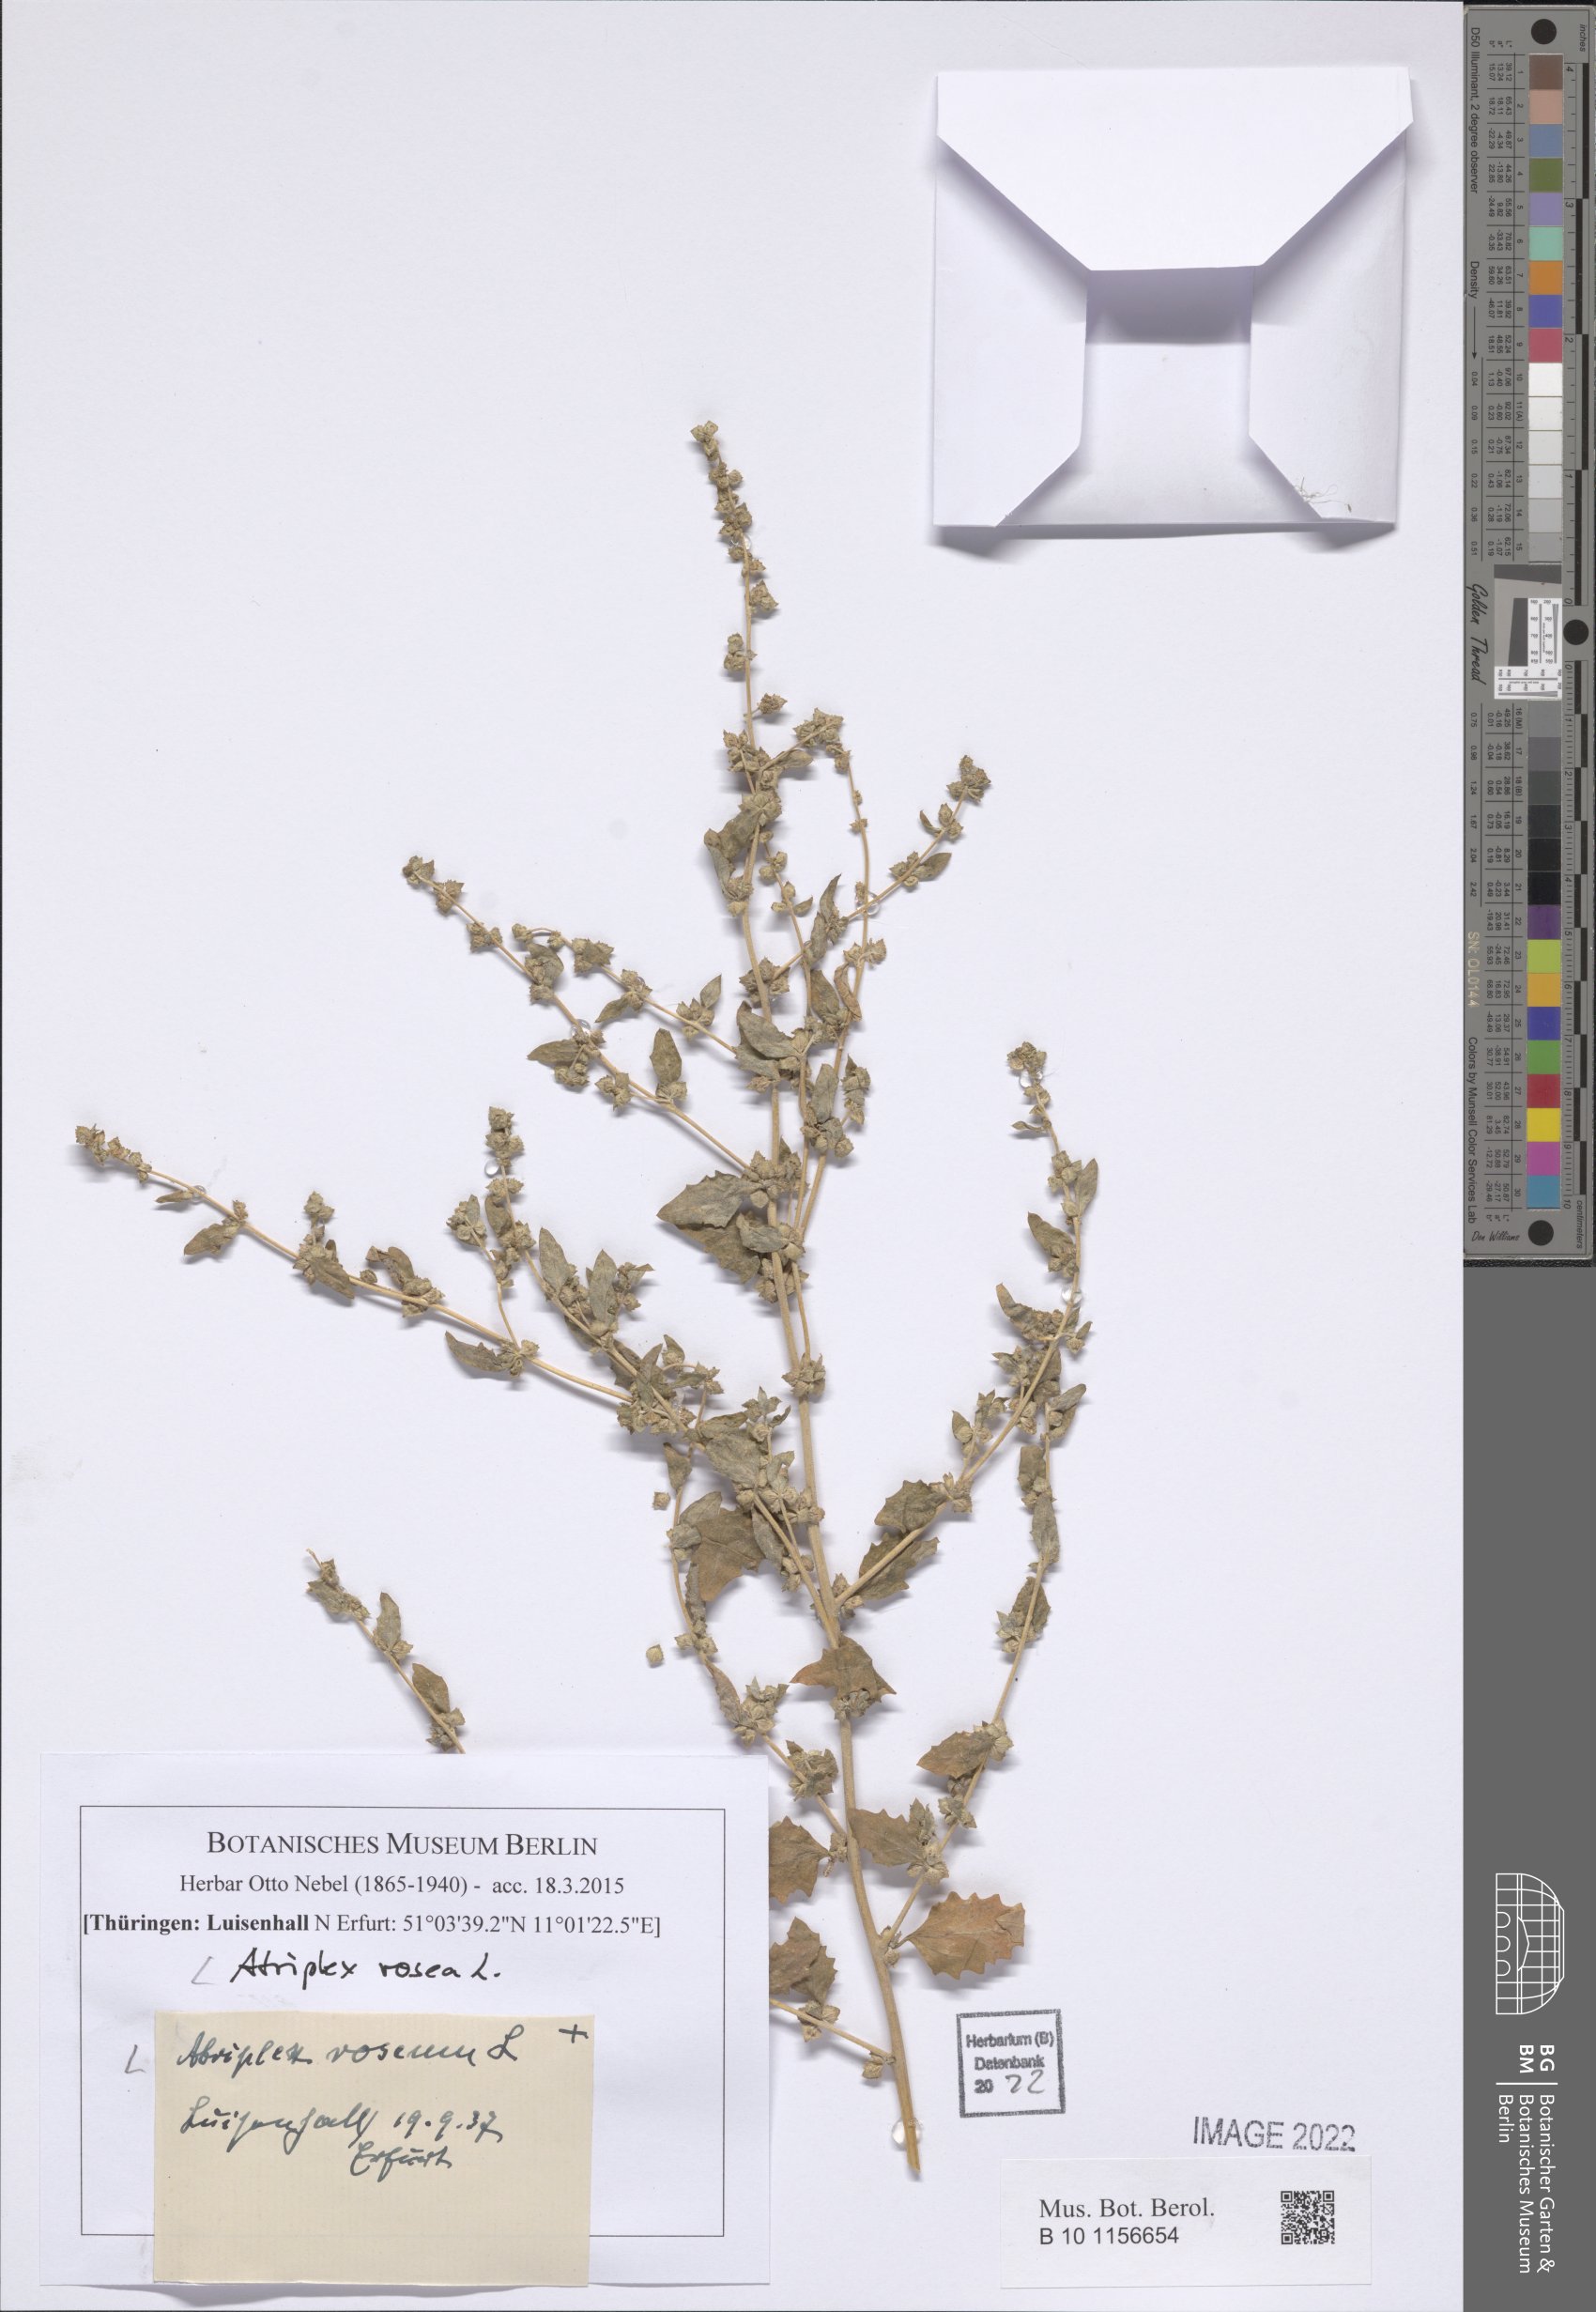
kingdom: Plantae
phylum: Tracheophyta
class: Magnoliopsida
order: Caryophyllales
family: Amaranthaceae
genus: Atriplex
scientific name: Atriplex rosea
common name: Tumbling saltweed
